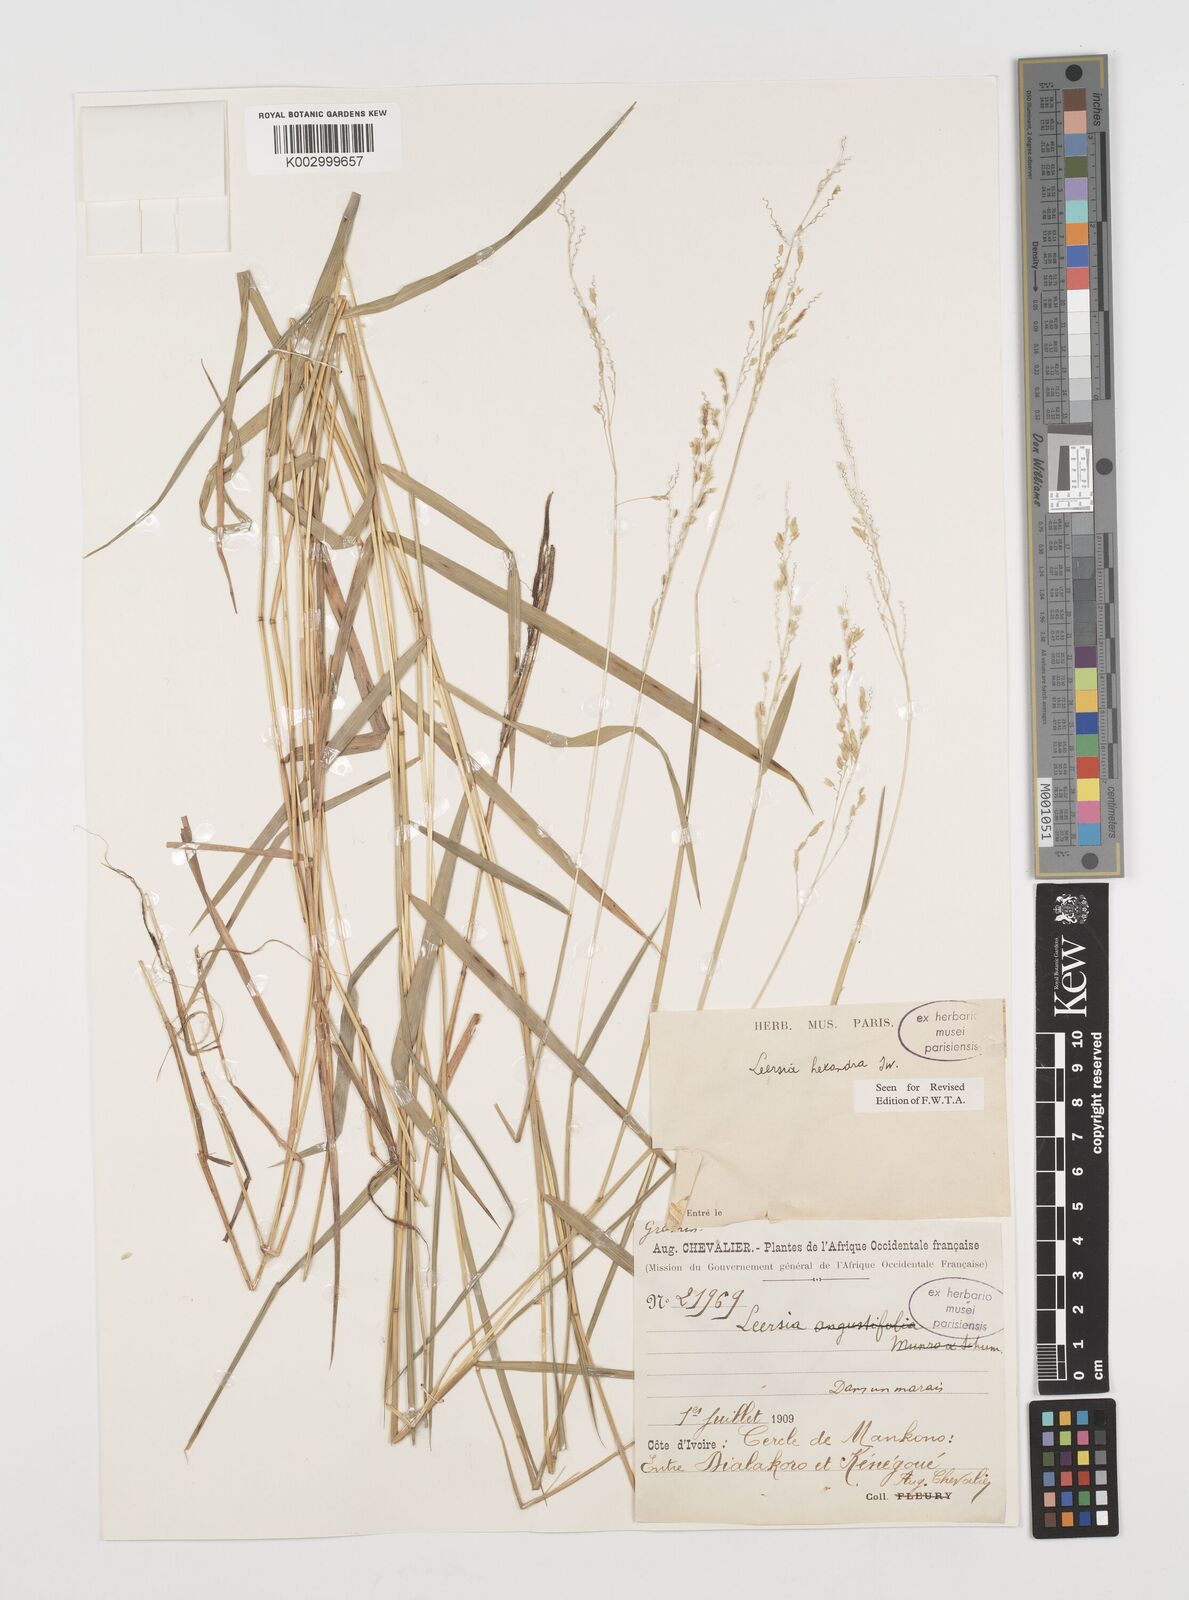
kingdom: Plantae
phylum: Tracheophyta
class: Liliopsida
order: Poales
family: Poaceae
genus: Leersia
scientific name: Leersia hexandra
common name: Southern cut grass
